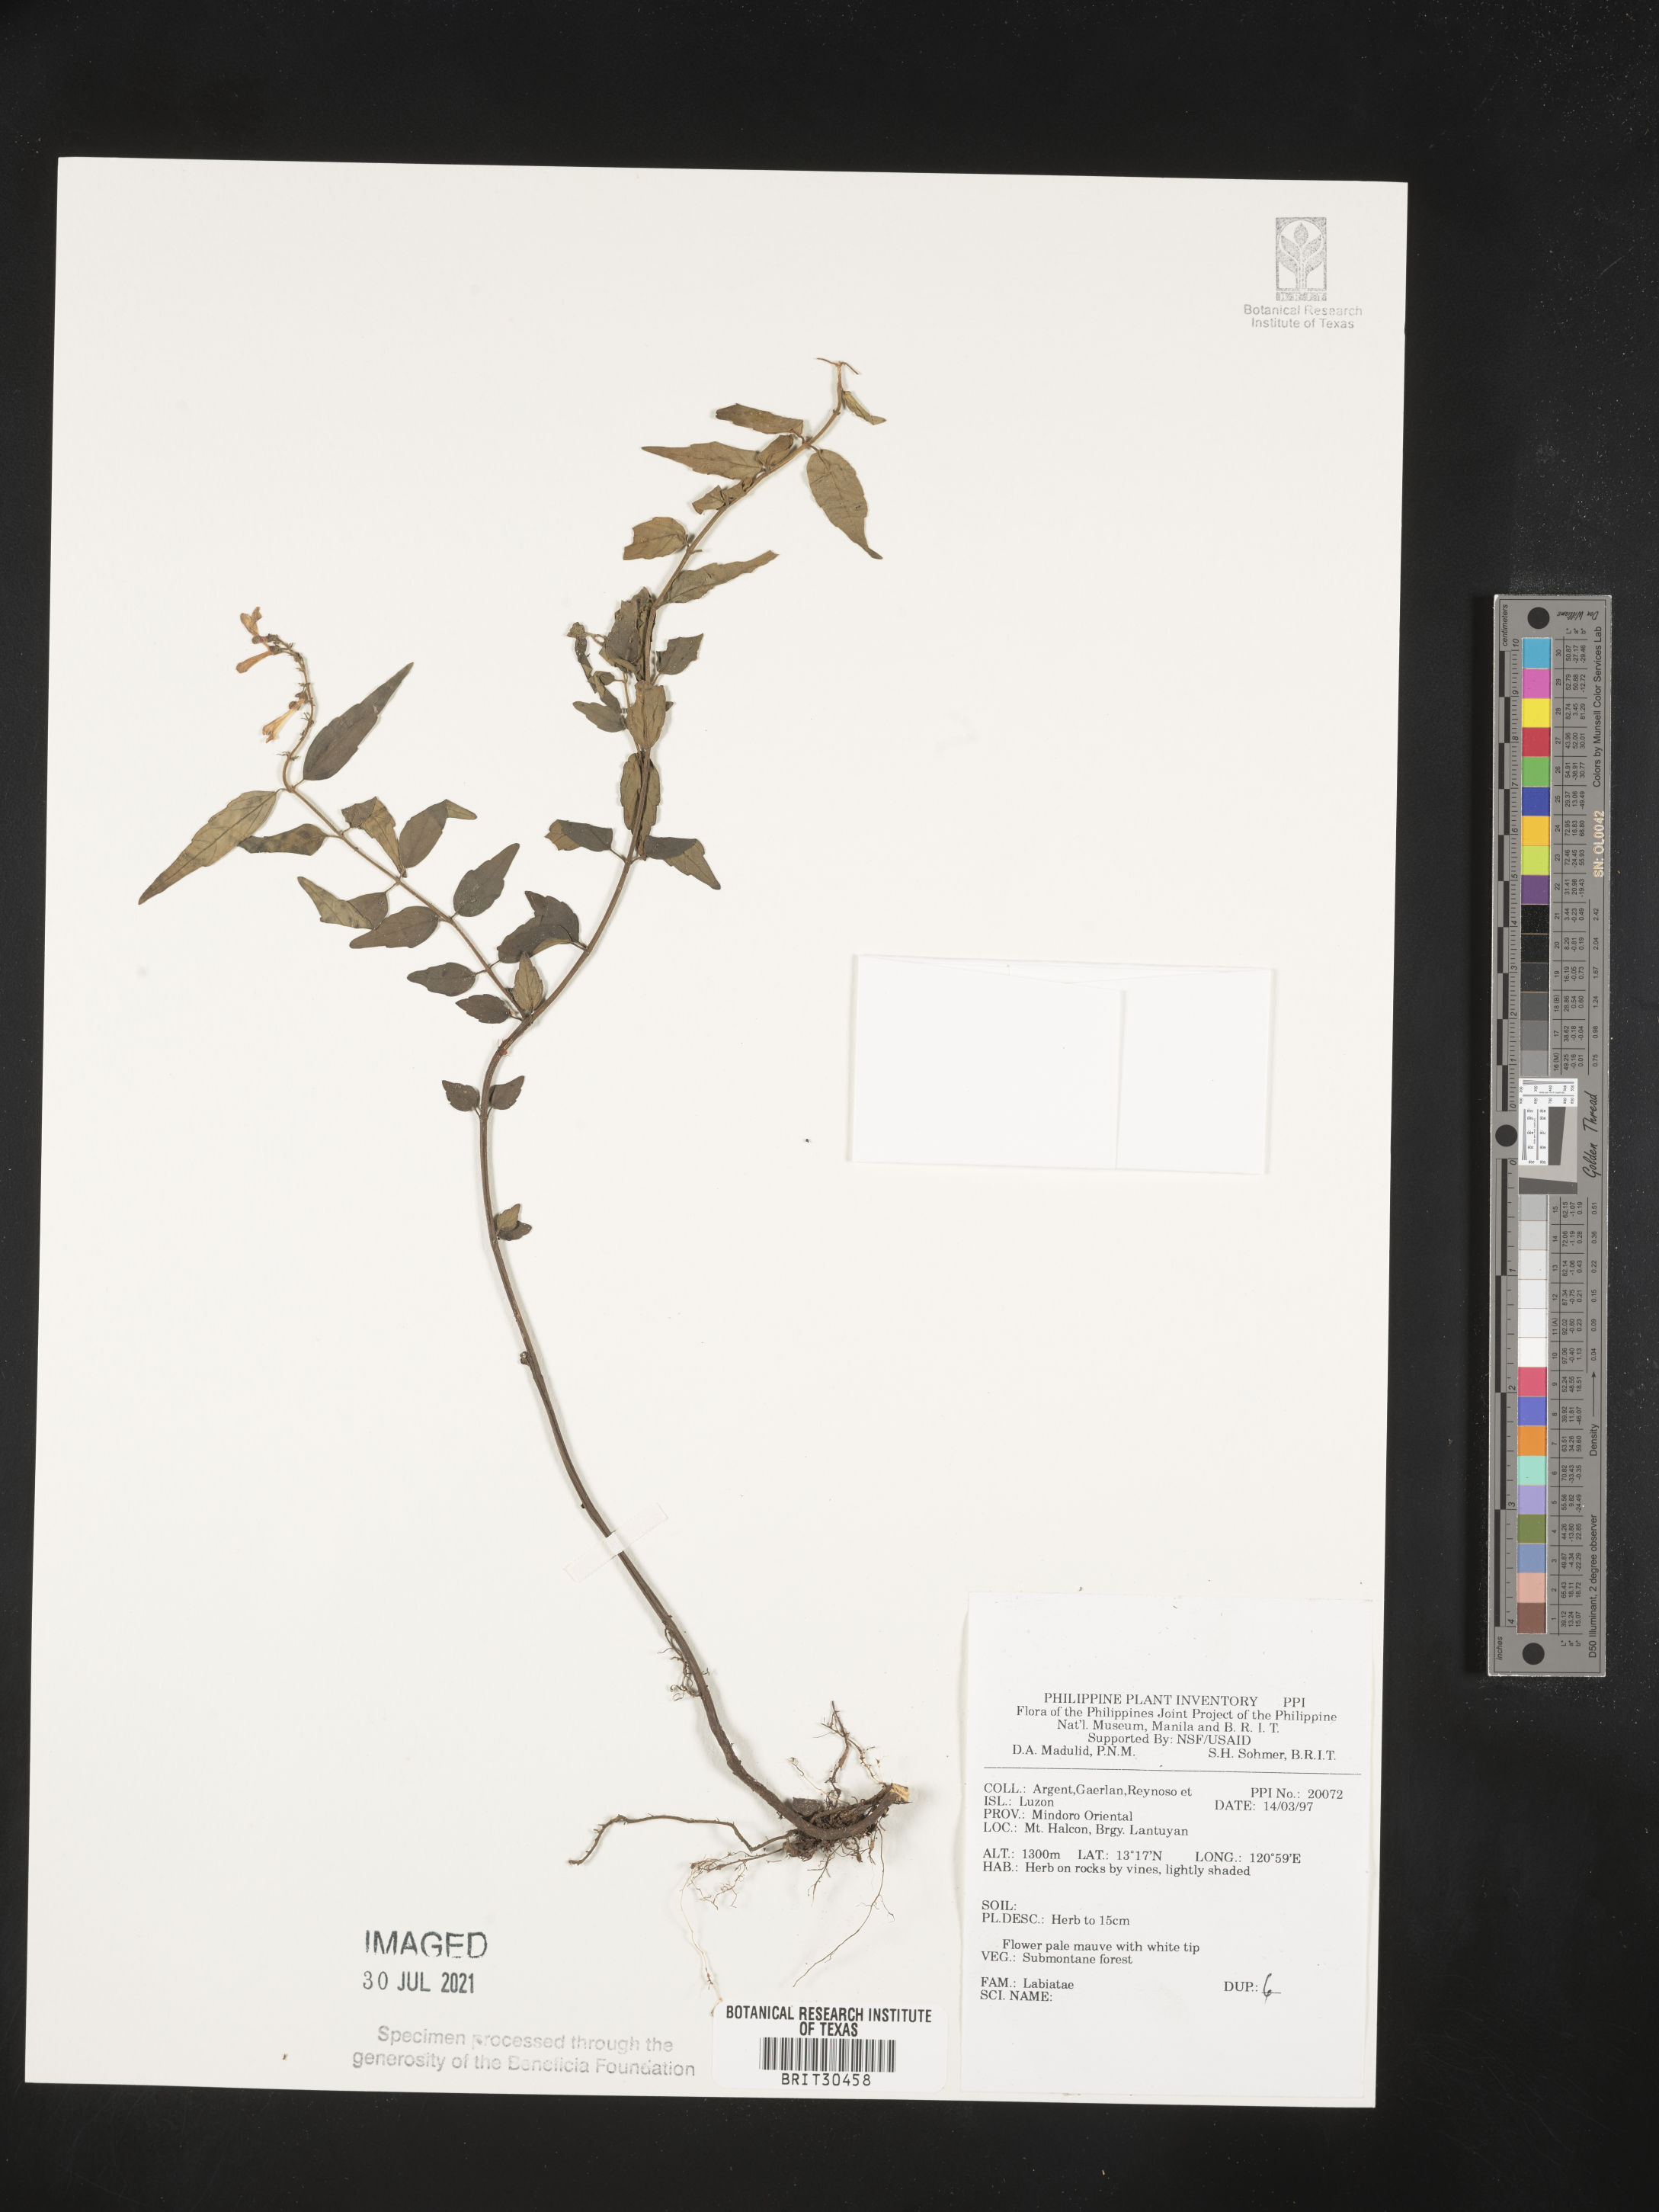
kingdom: Plantae
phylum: Tracheophyta
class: Magnoliopsida
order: Lamiales
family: Lamiaceae
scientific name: Lamiaceae
